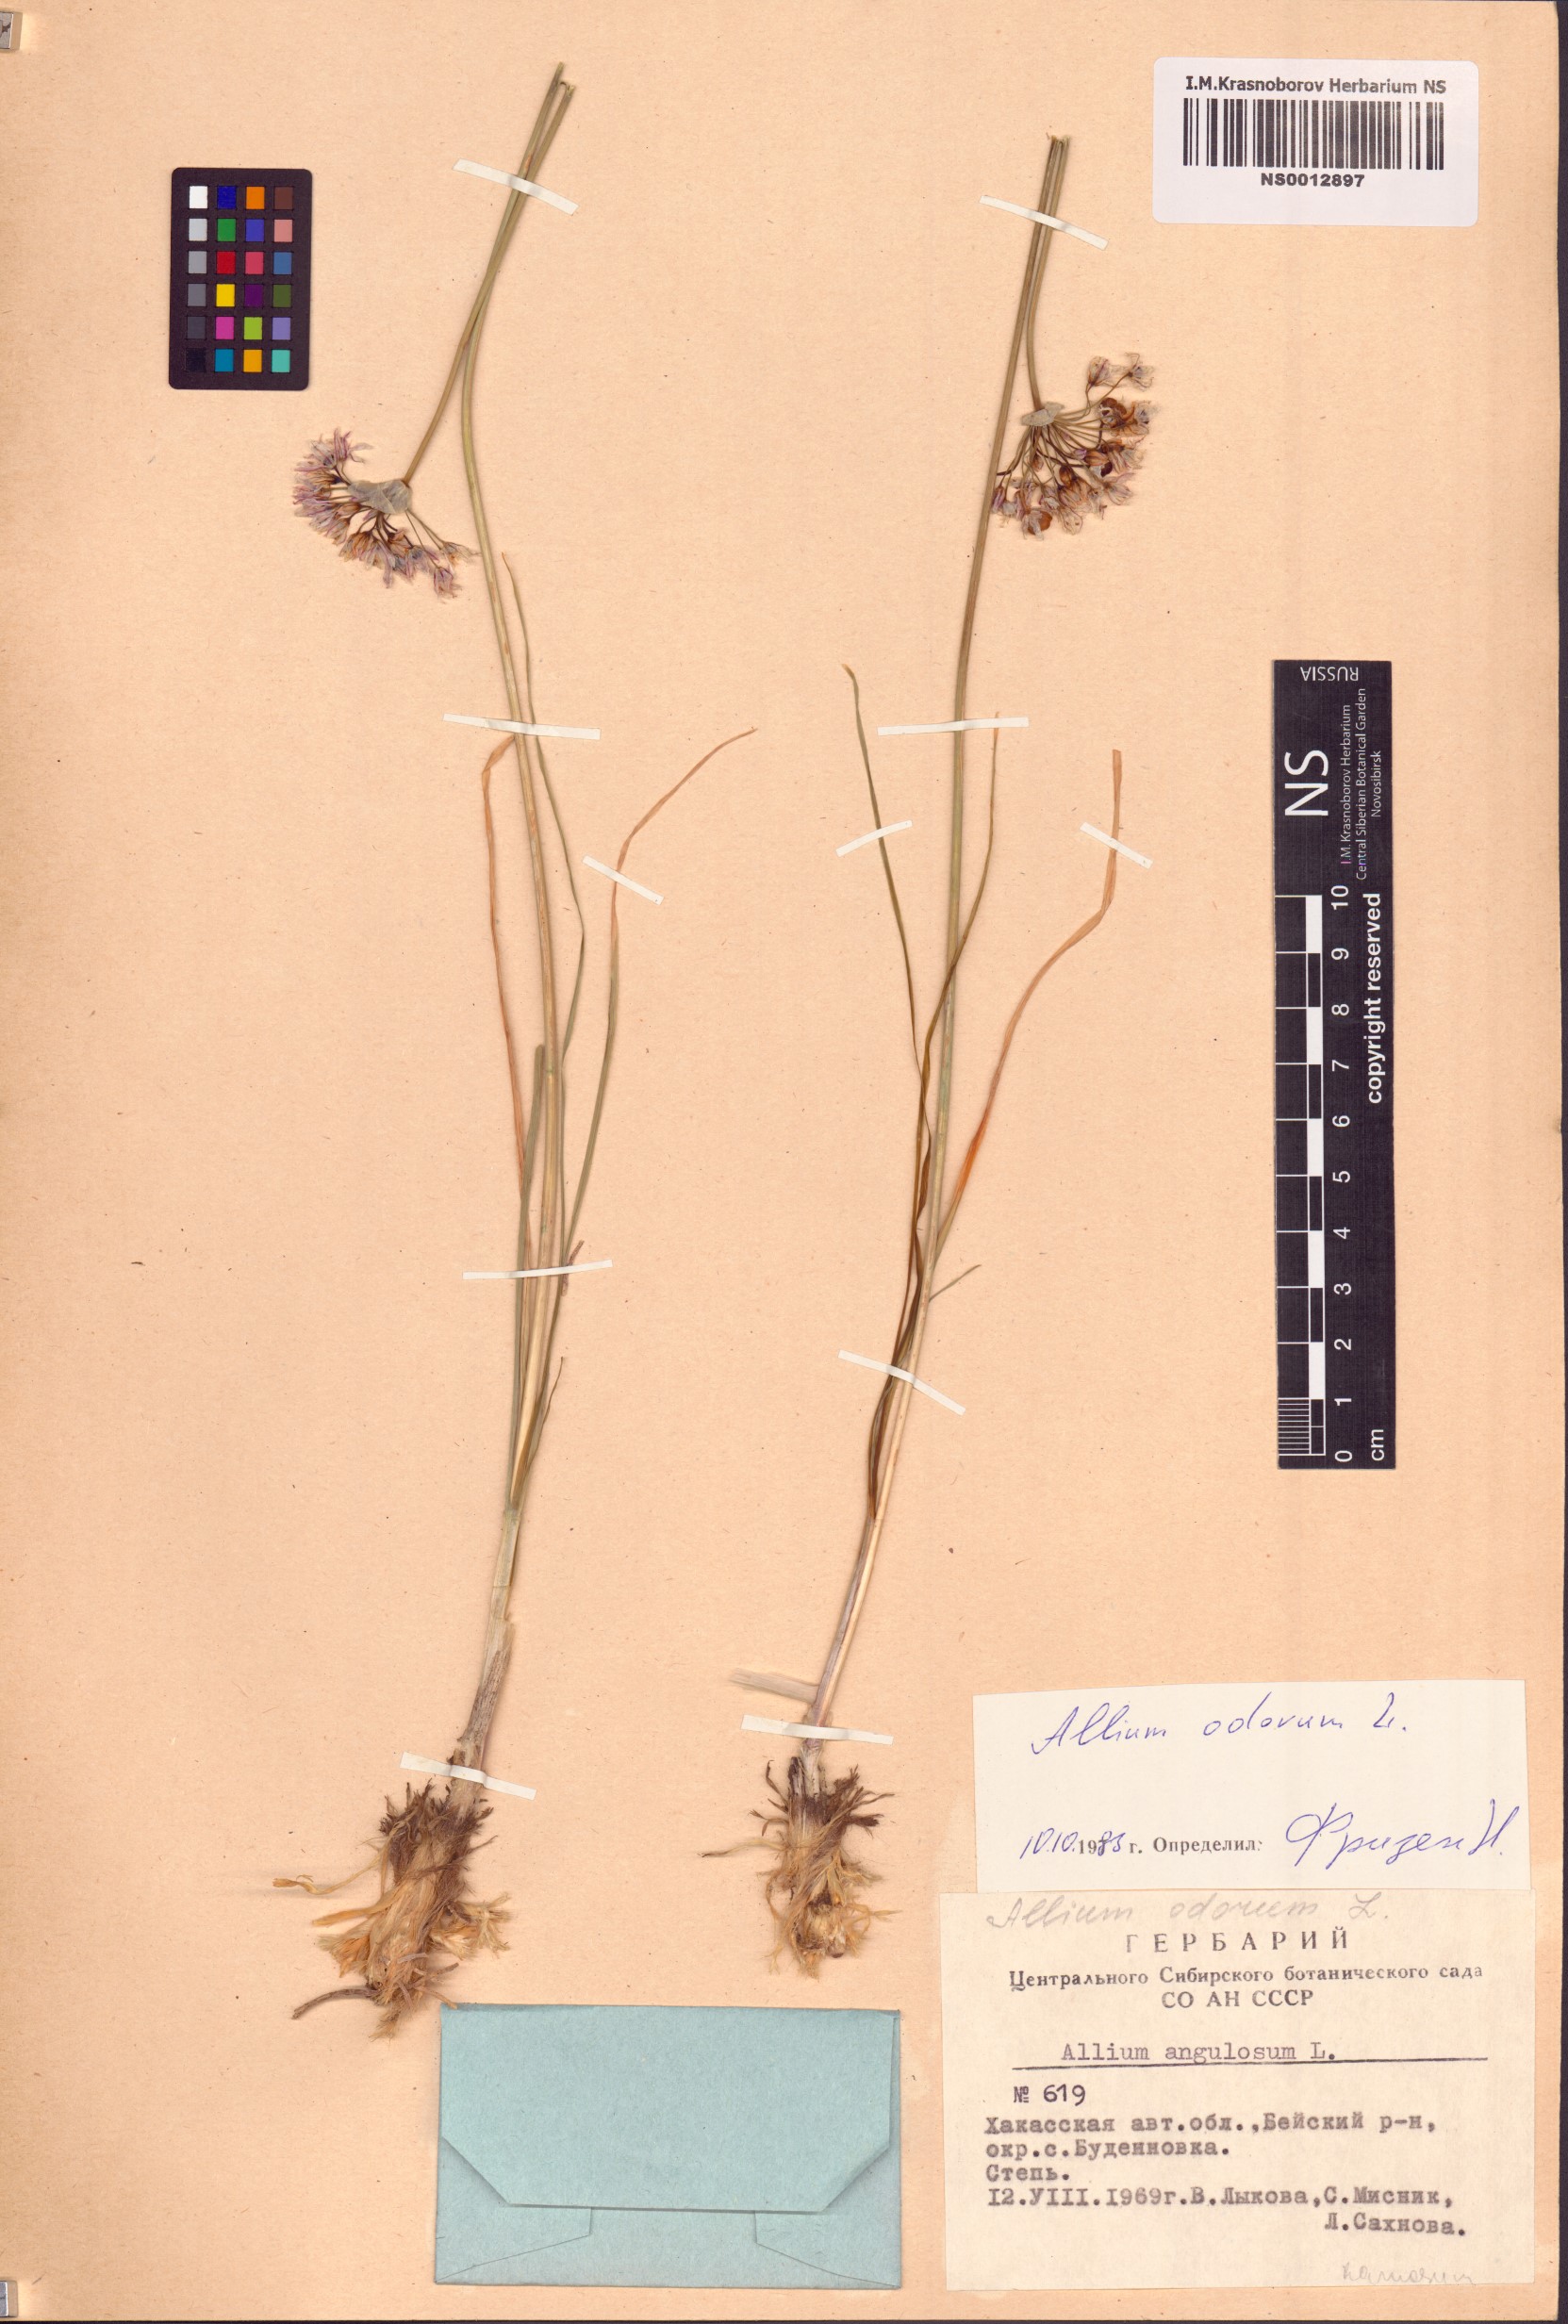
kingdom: Plantae
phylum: Tracheophyta
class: Liliopsida
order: Asparagales
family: Amaryllidaceae
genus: Allium
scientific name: Allium ramosum
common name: Fragrant garlic
